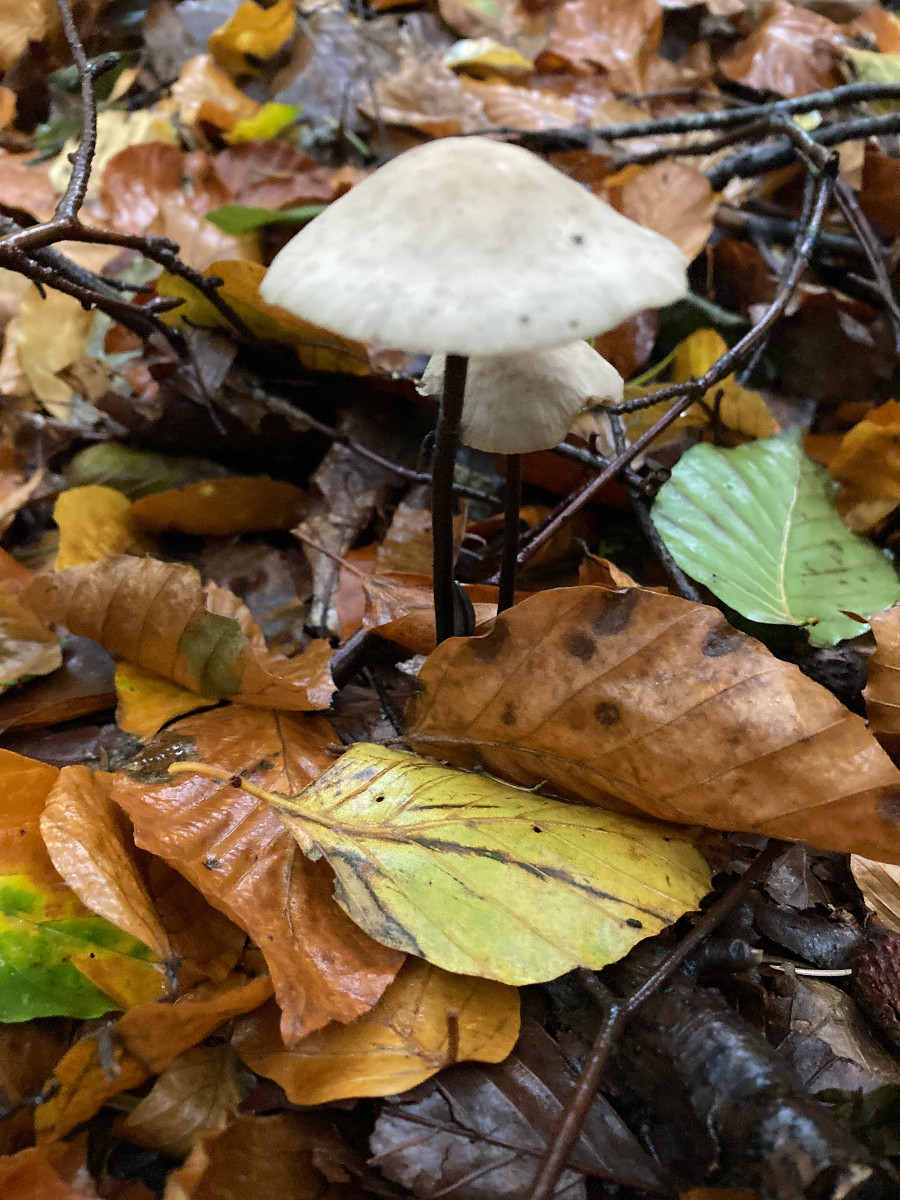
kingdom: Fungi
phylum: Basidiomycota
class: Agaricomycetes
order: Agaricales
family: Omphalotaceae
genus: Mycetinis
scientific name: Mycetinis alliaceus
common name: stor løghat
